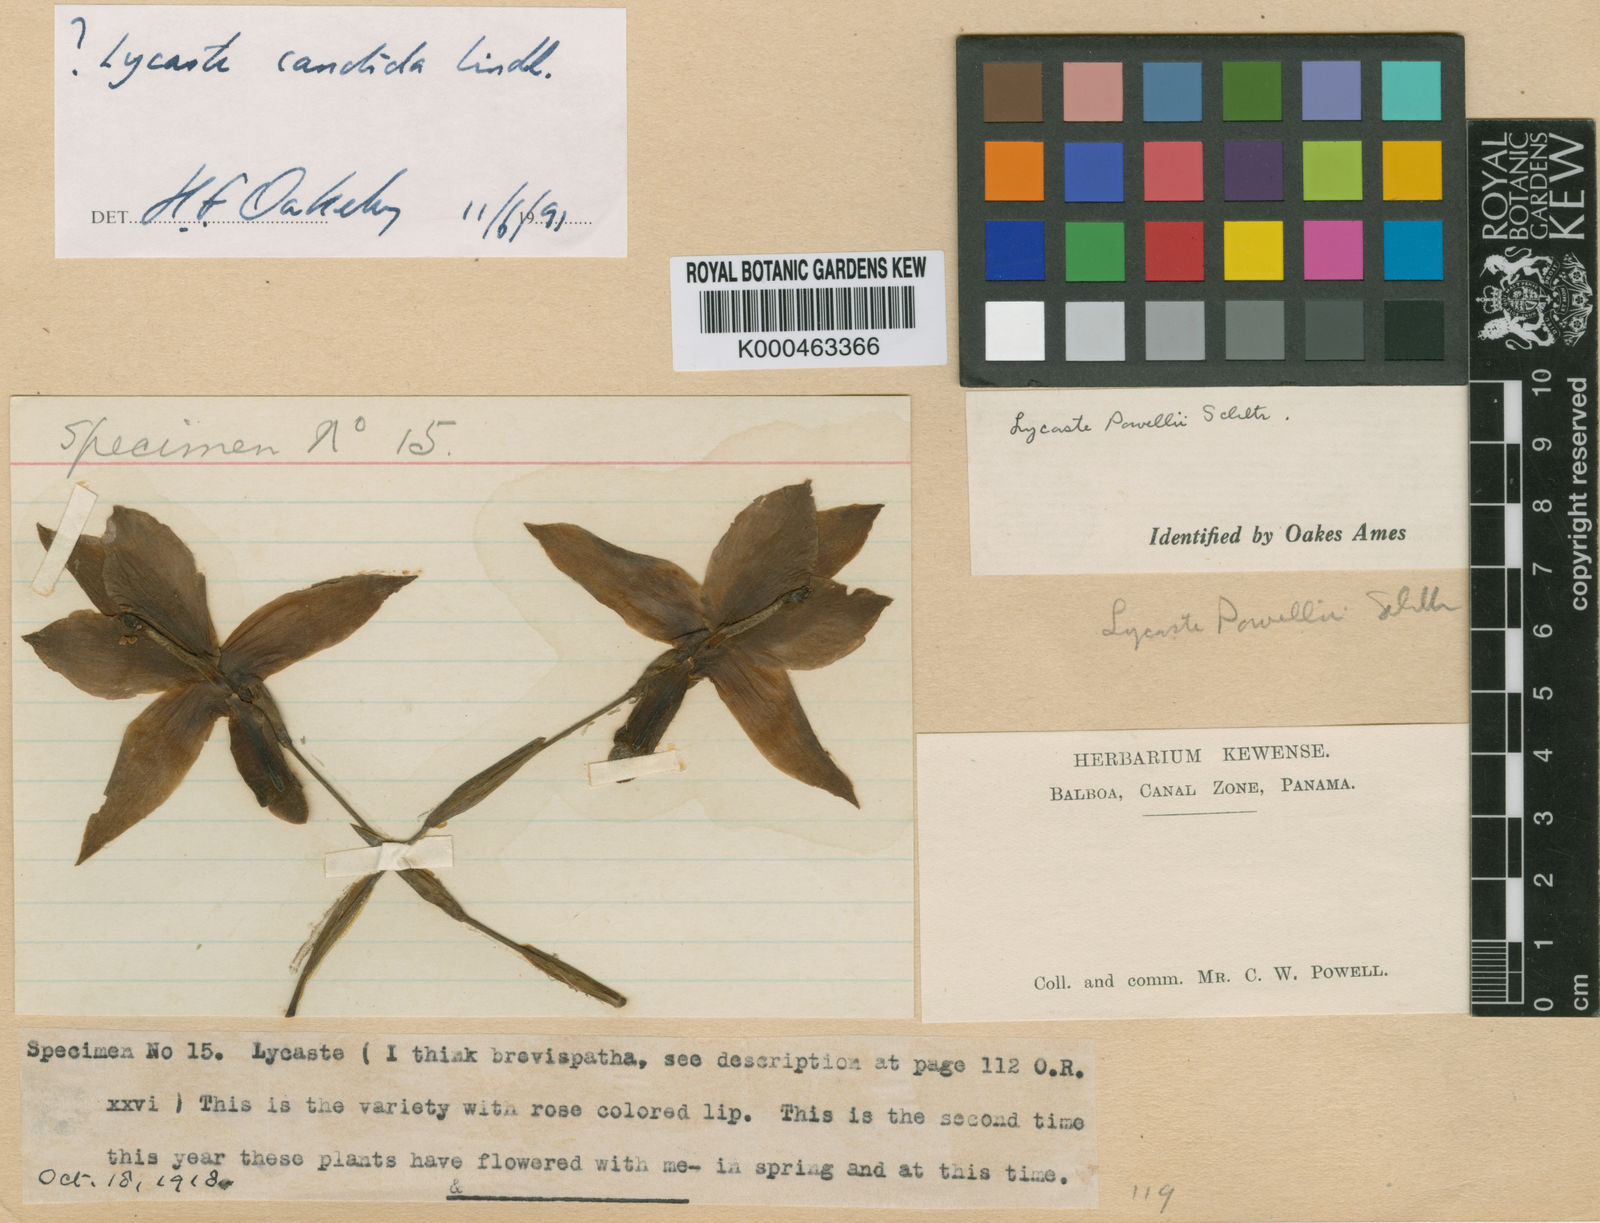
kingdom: Plantae
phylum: Tracheophyta
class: Liliopsida
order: Asparagales
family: Orchidaceae
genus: Lycaste
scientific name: Lycaste brevispatha
